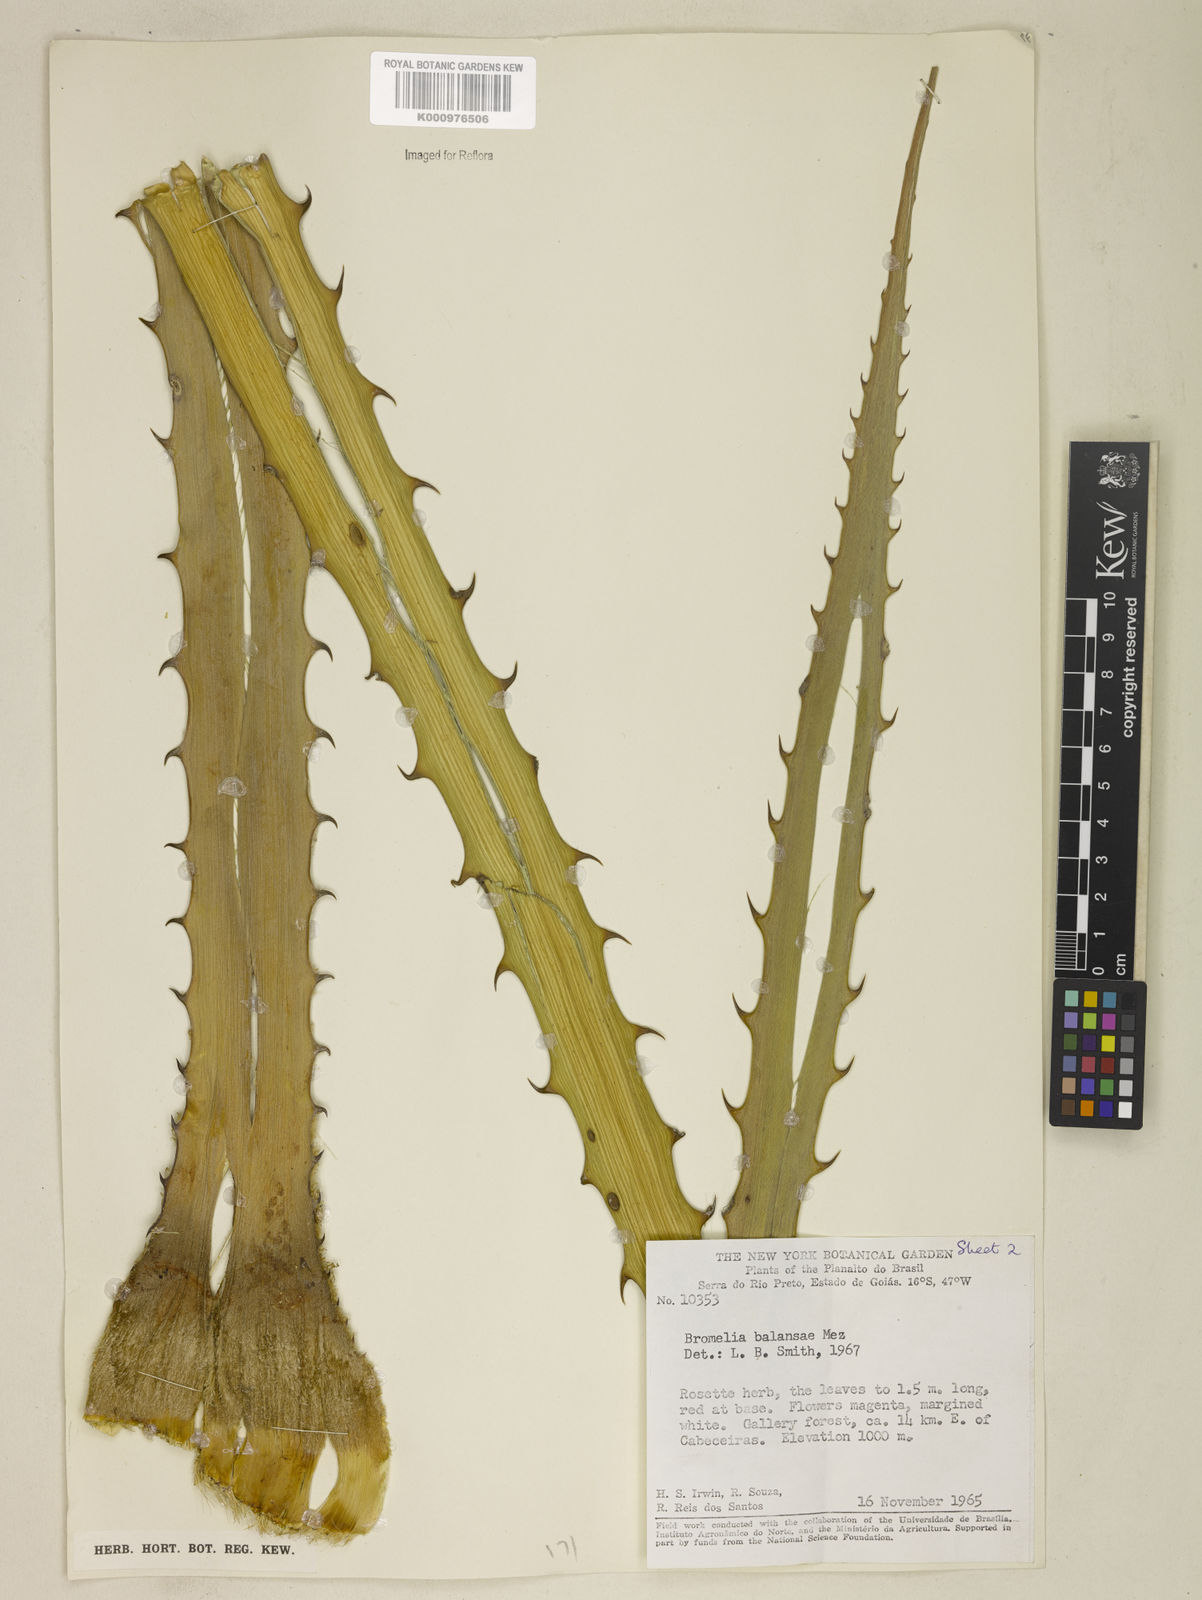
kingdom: Plantae
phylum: Tracheophyta
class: Liliopsida
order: Poales
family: Bromeliaceae
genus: Bromelia
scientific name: Bromelia balansae
